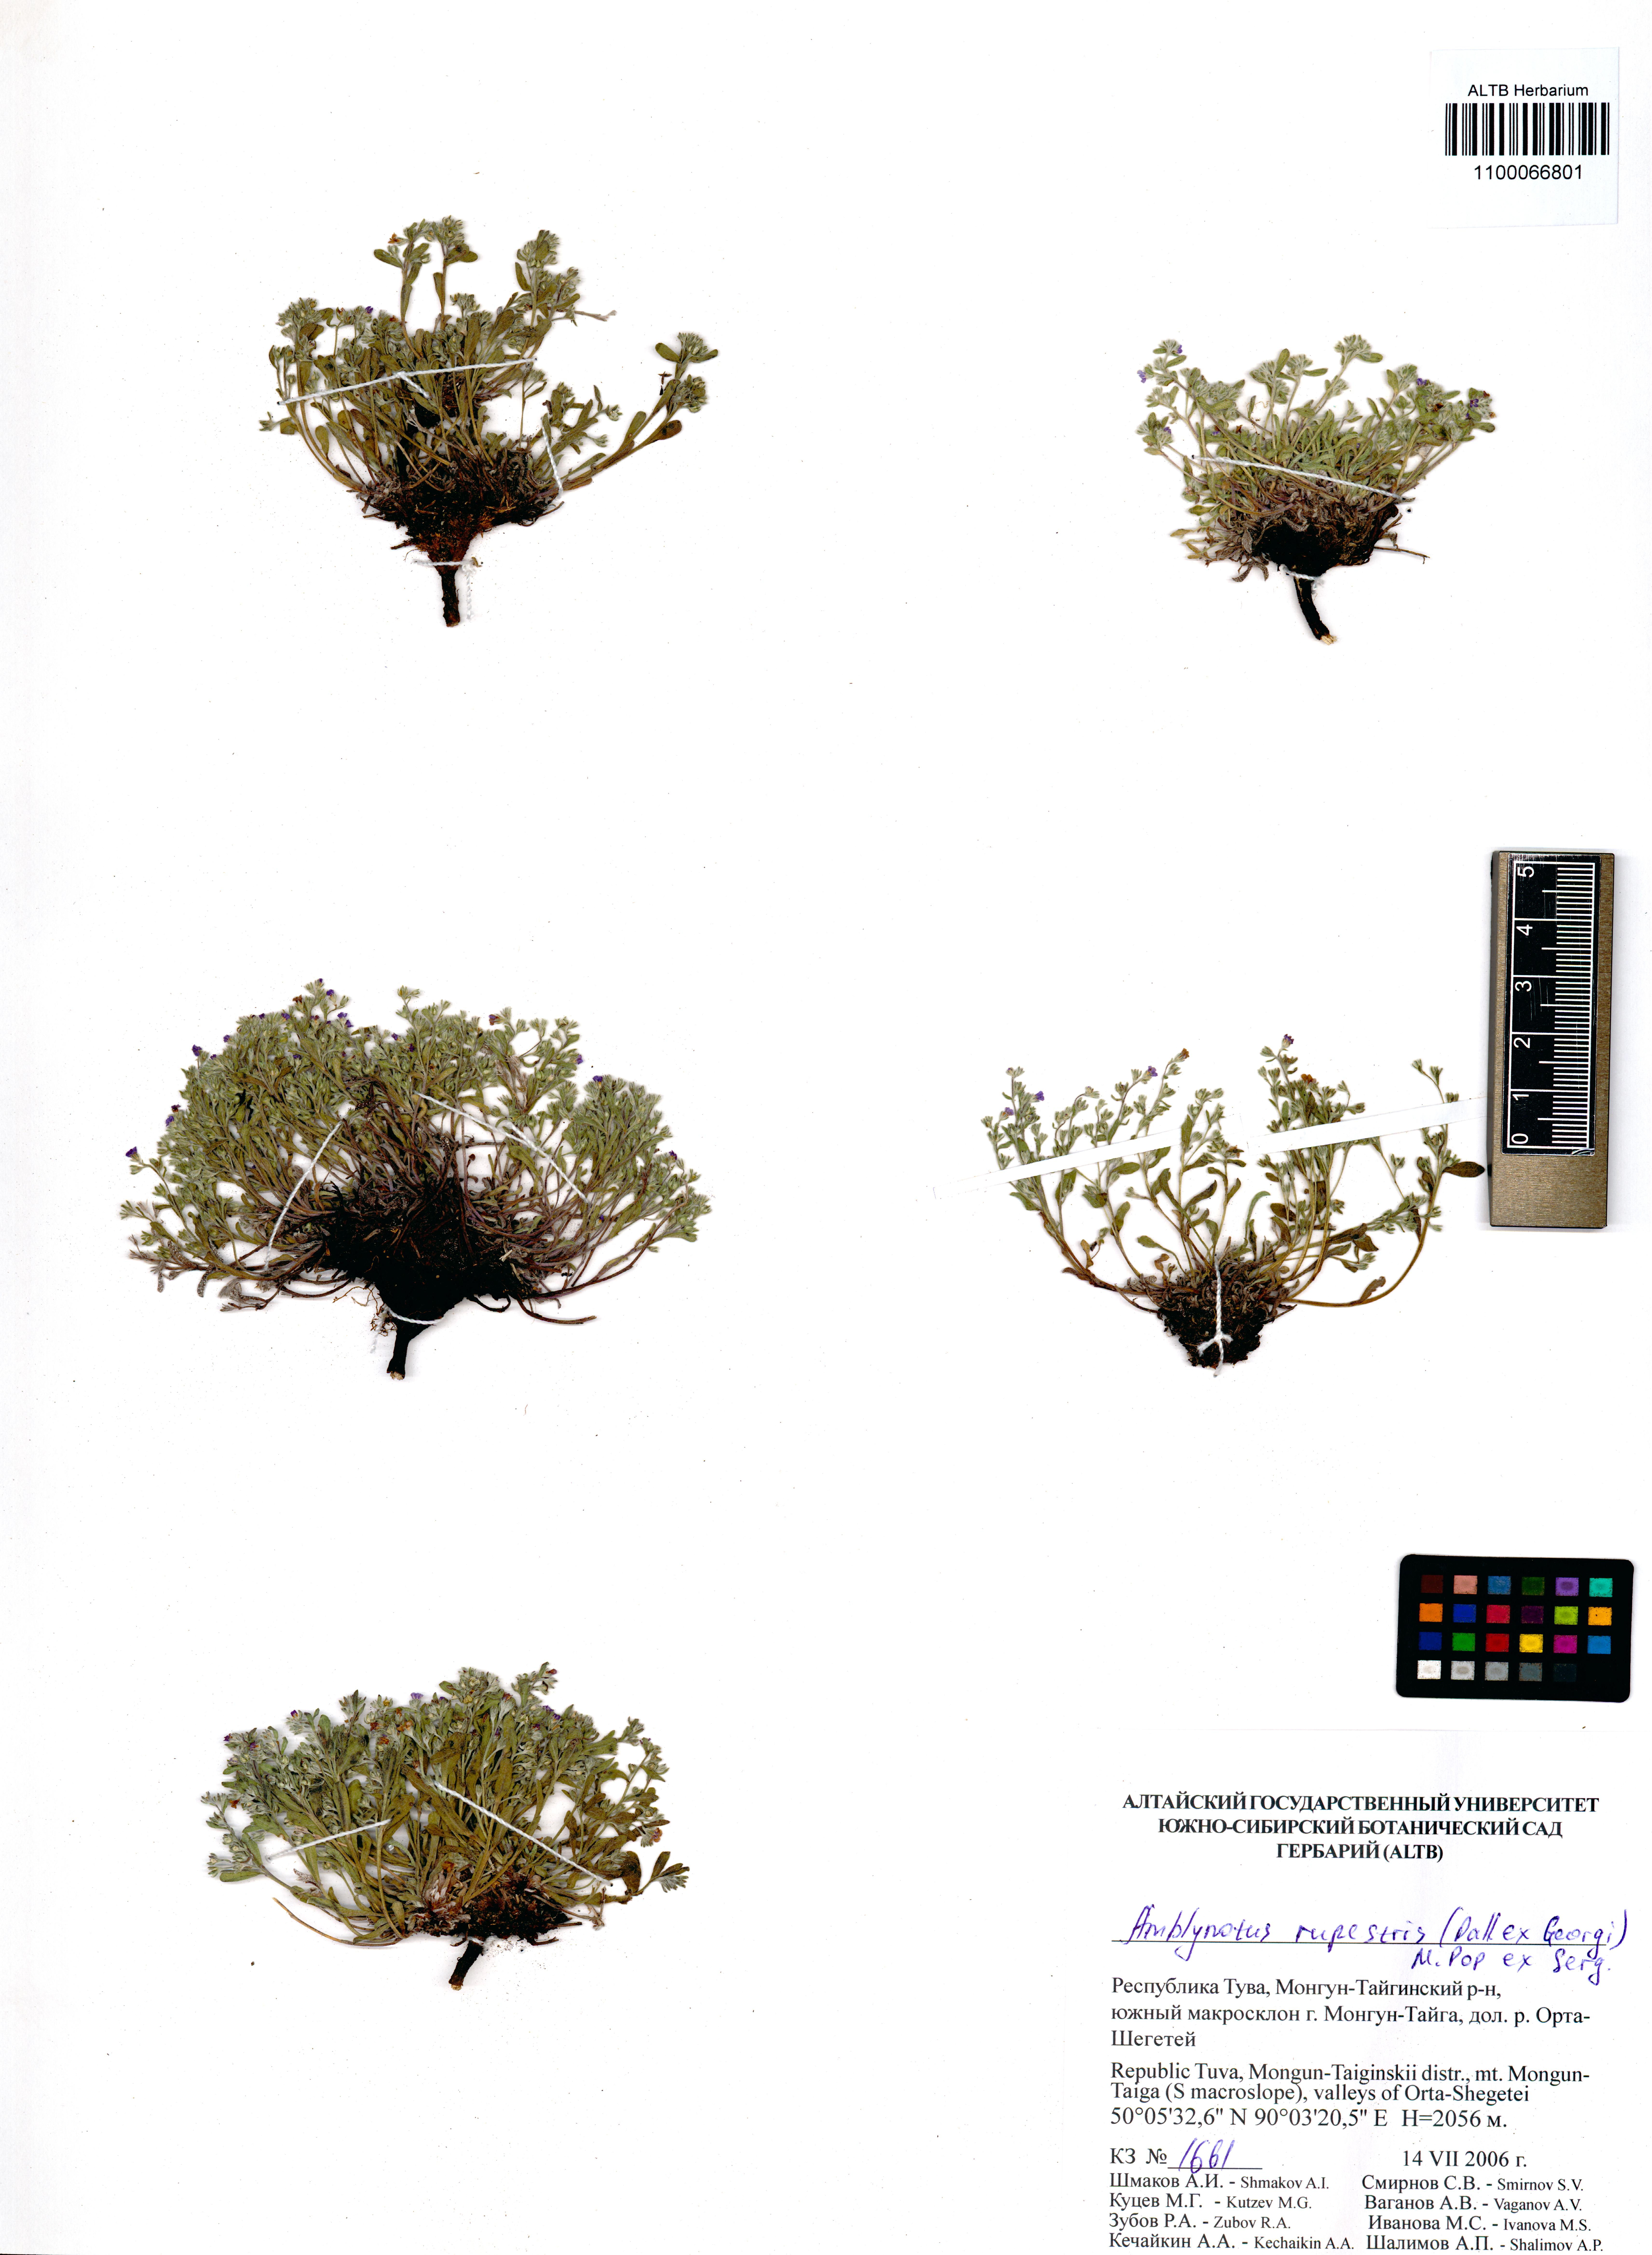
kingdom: Plantae
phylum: Tracheophyta
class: Magnoliopsida
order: Boraginales
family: Boraginaceae
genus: Eritrichium
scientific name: Eritrichium rupestre
